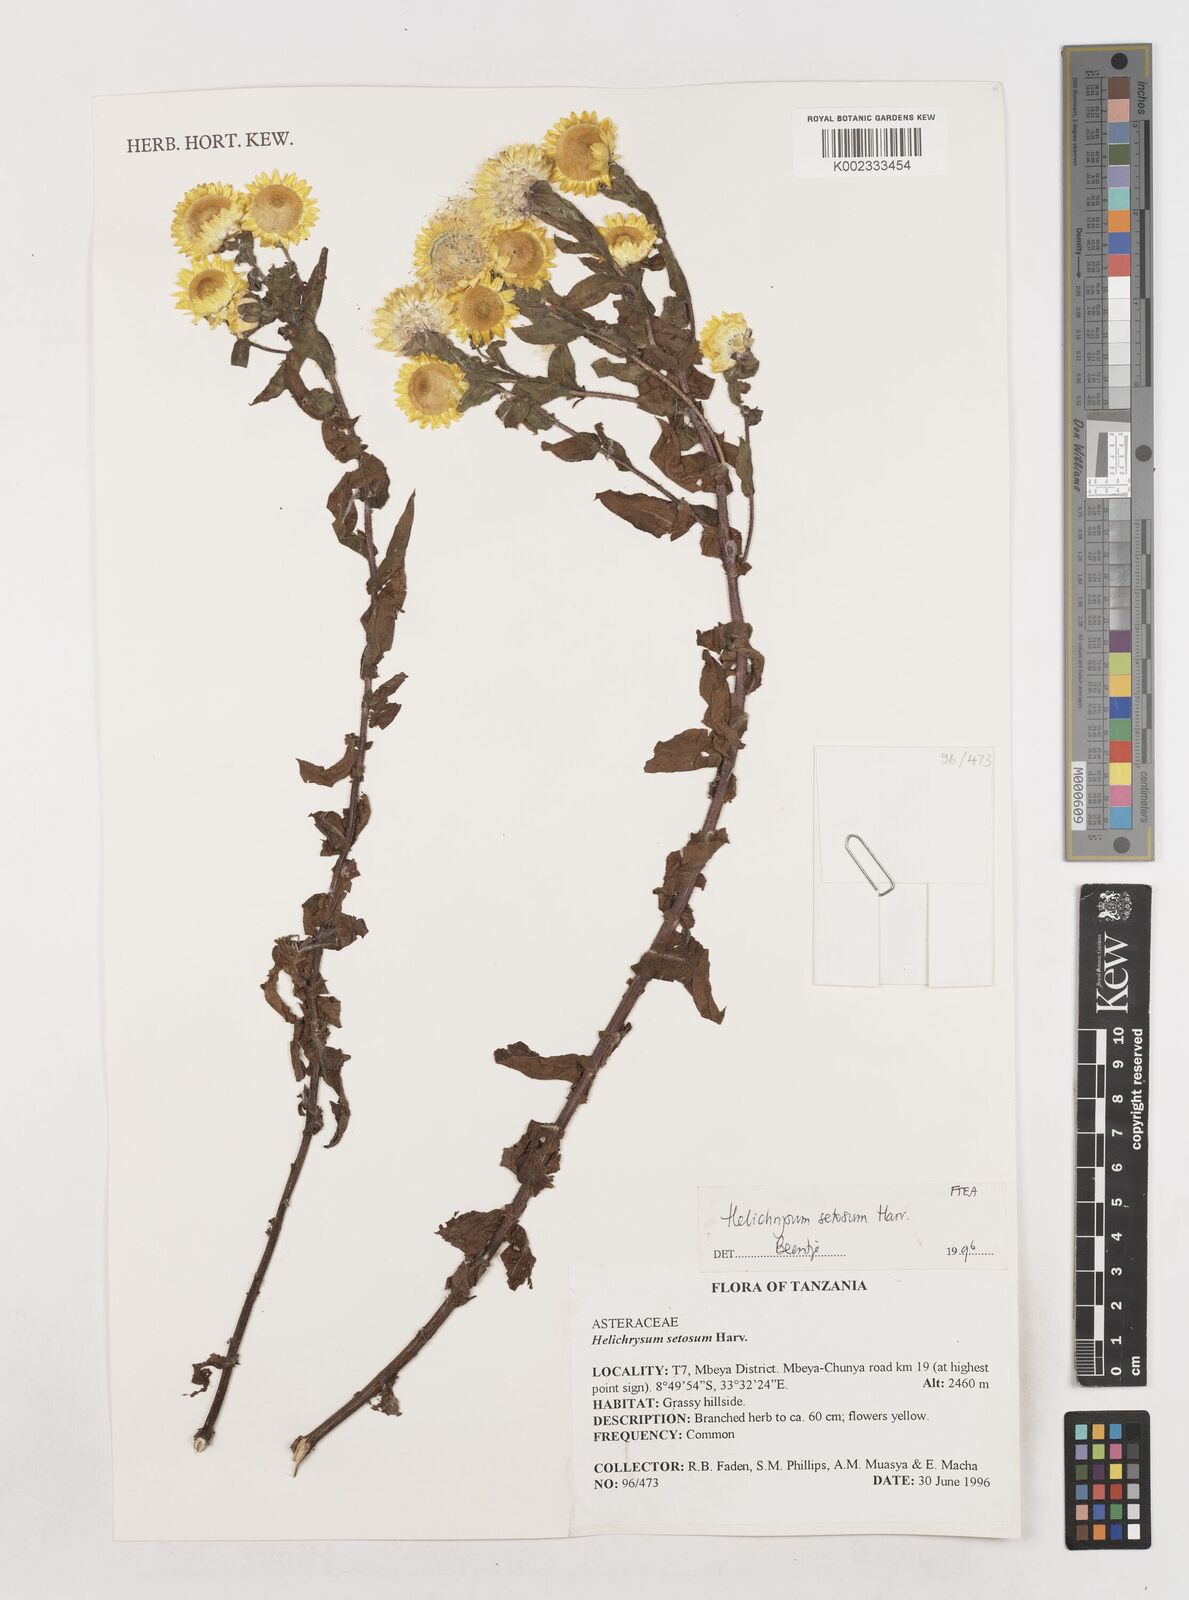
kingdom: Plantae
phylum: Tracheophyta
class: Magnoliopsida
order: Asterales
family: Asteraceae
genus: Helichrysum
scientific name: Helichrysum setosum
